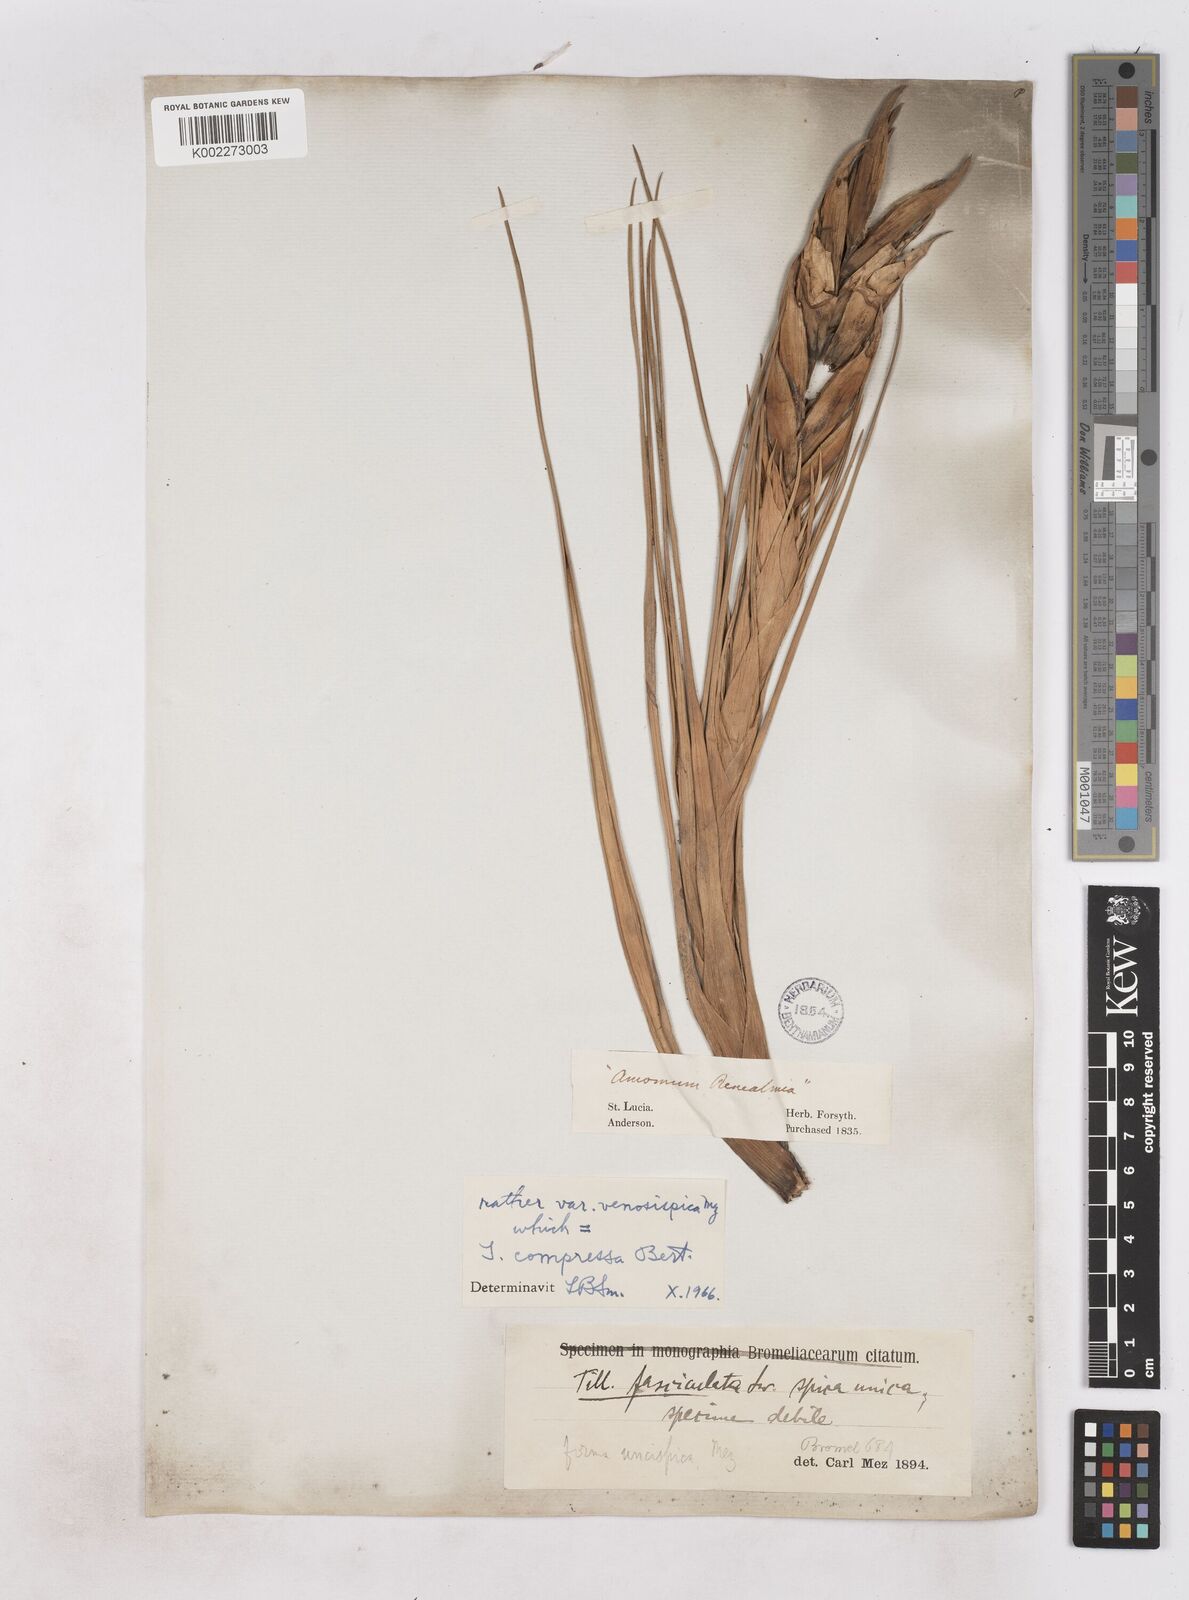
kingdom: Plantae
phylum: Tracheophyta
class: Liliopsida
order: Poales
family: Bromeliaceae
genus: Tillandsia
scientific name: Tillandsia compressa
